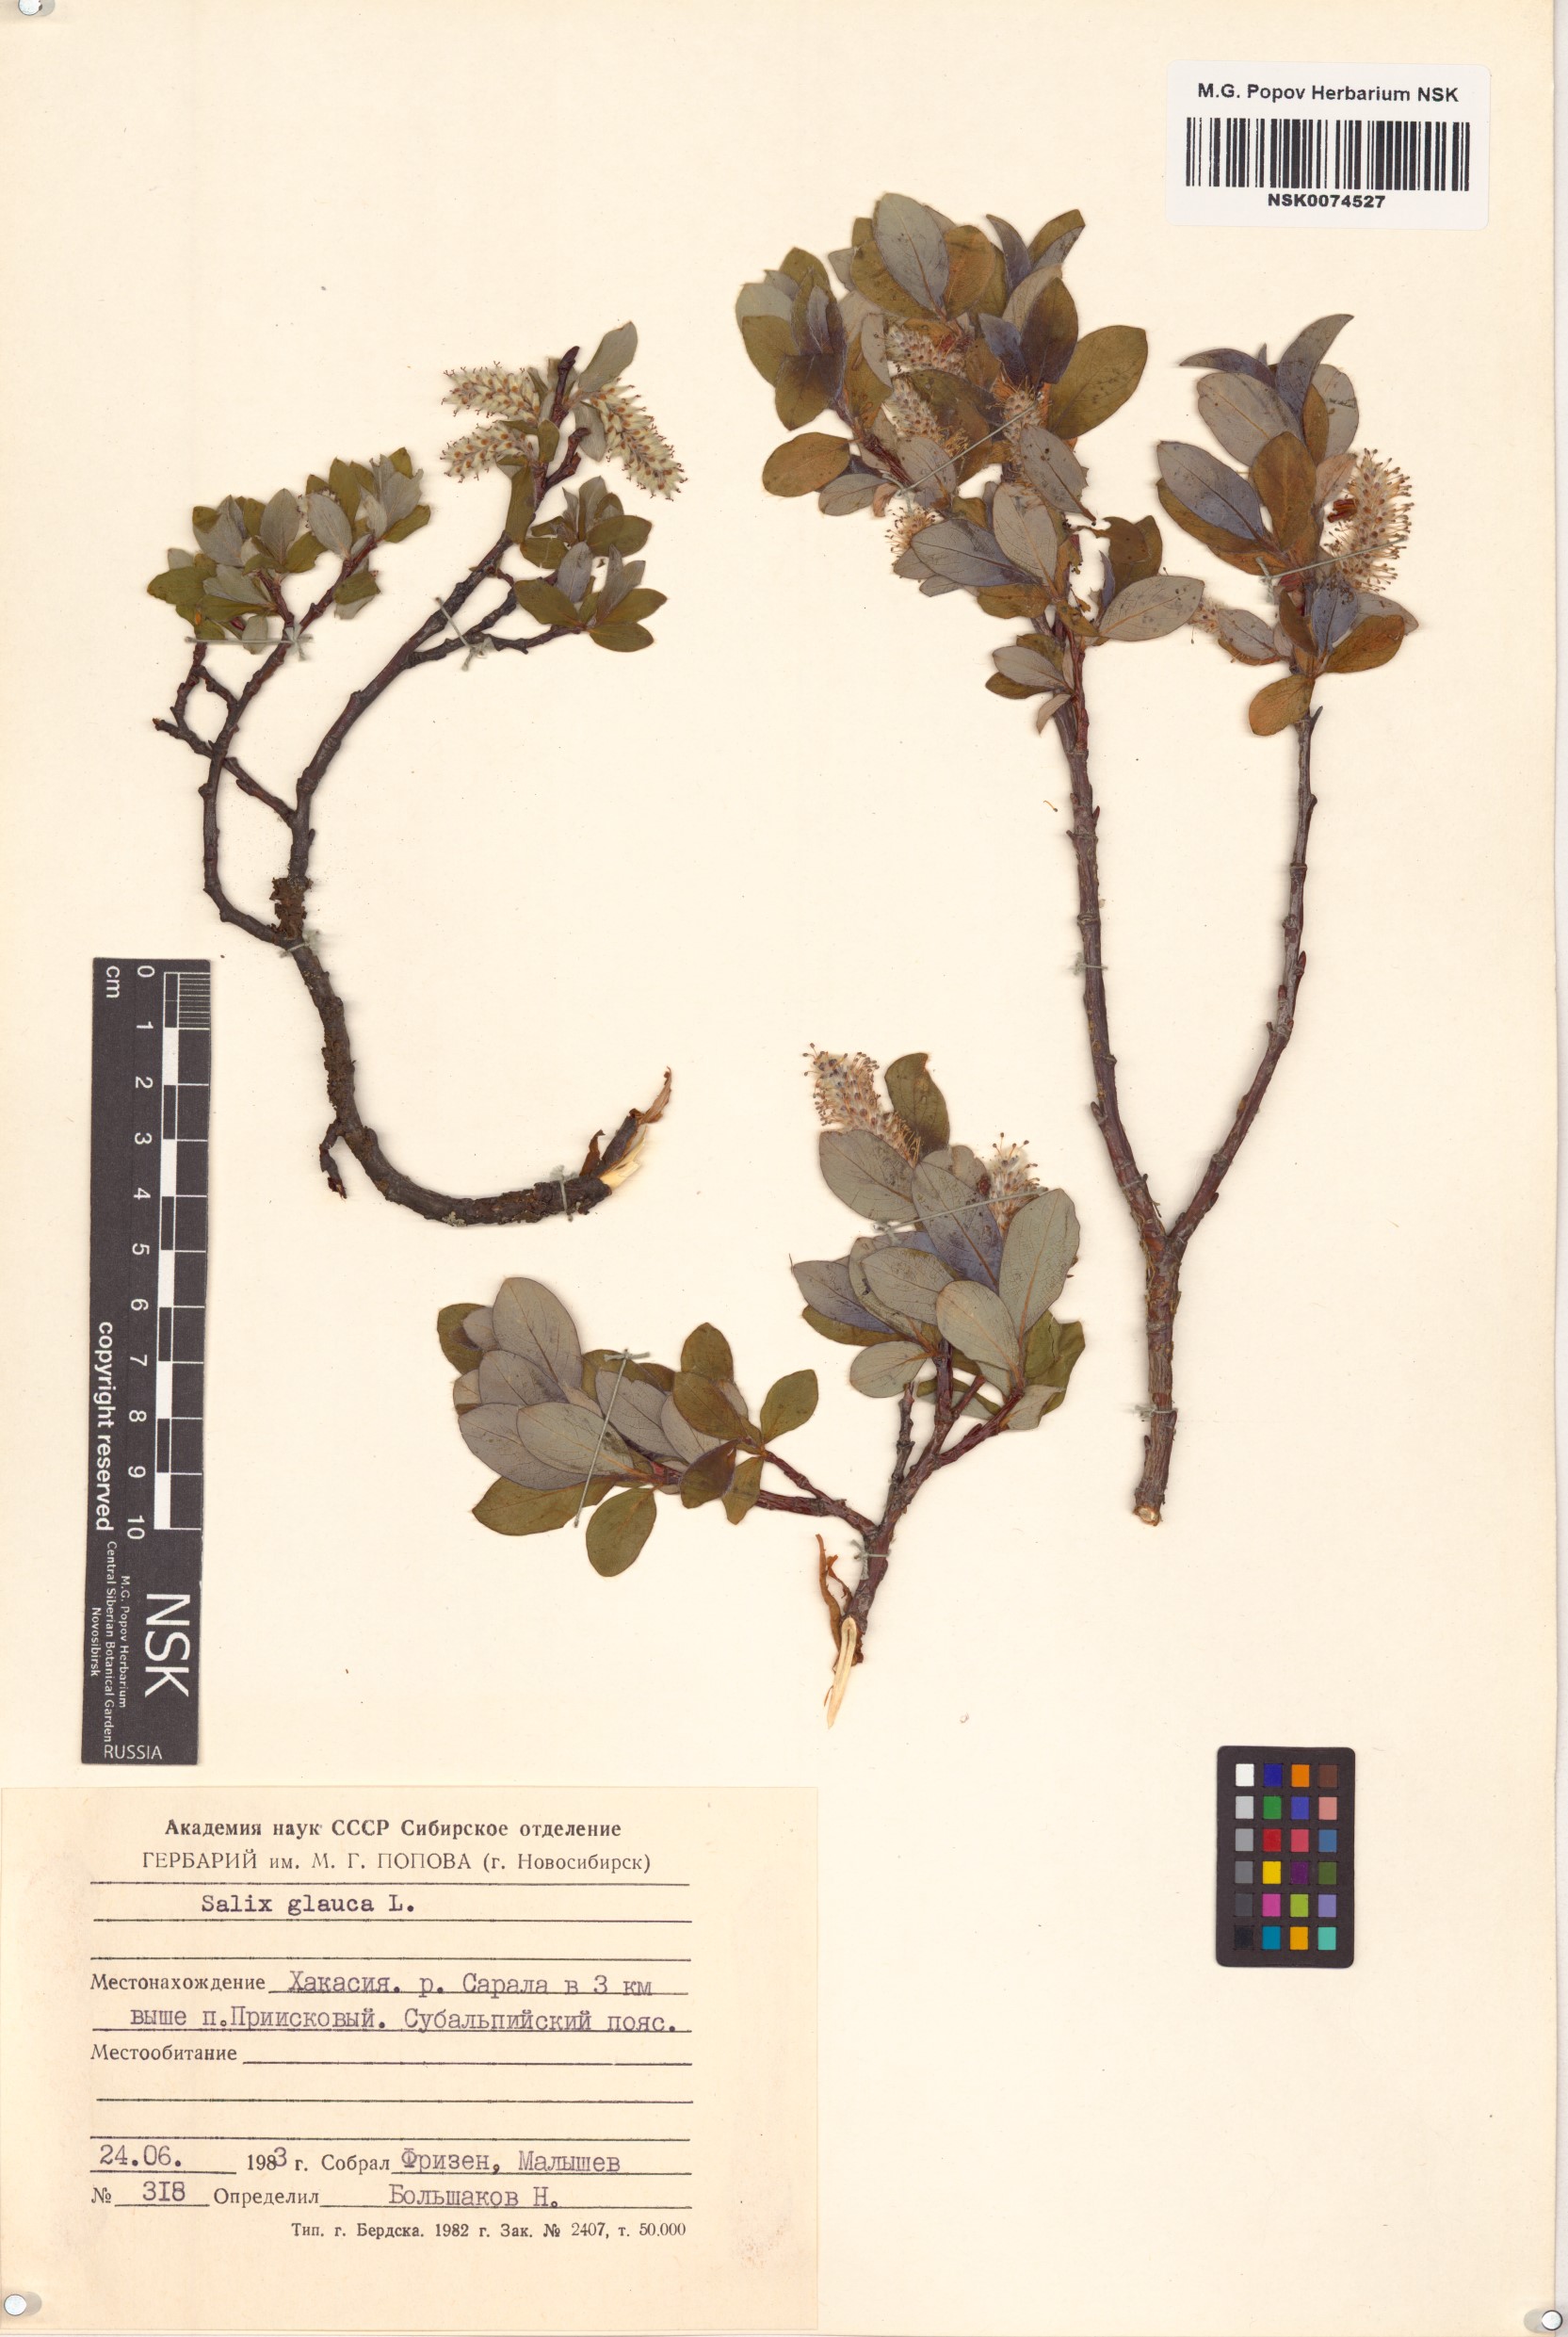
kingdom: Plantae
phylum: Tracheophyta
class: Magnoliopsida
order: Malpighiales
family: Salicaceae
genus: Salix
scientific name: Salix glauca
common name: Glaucous willow
